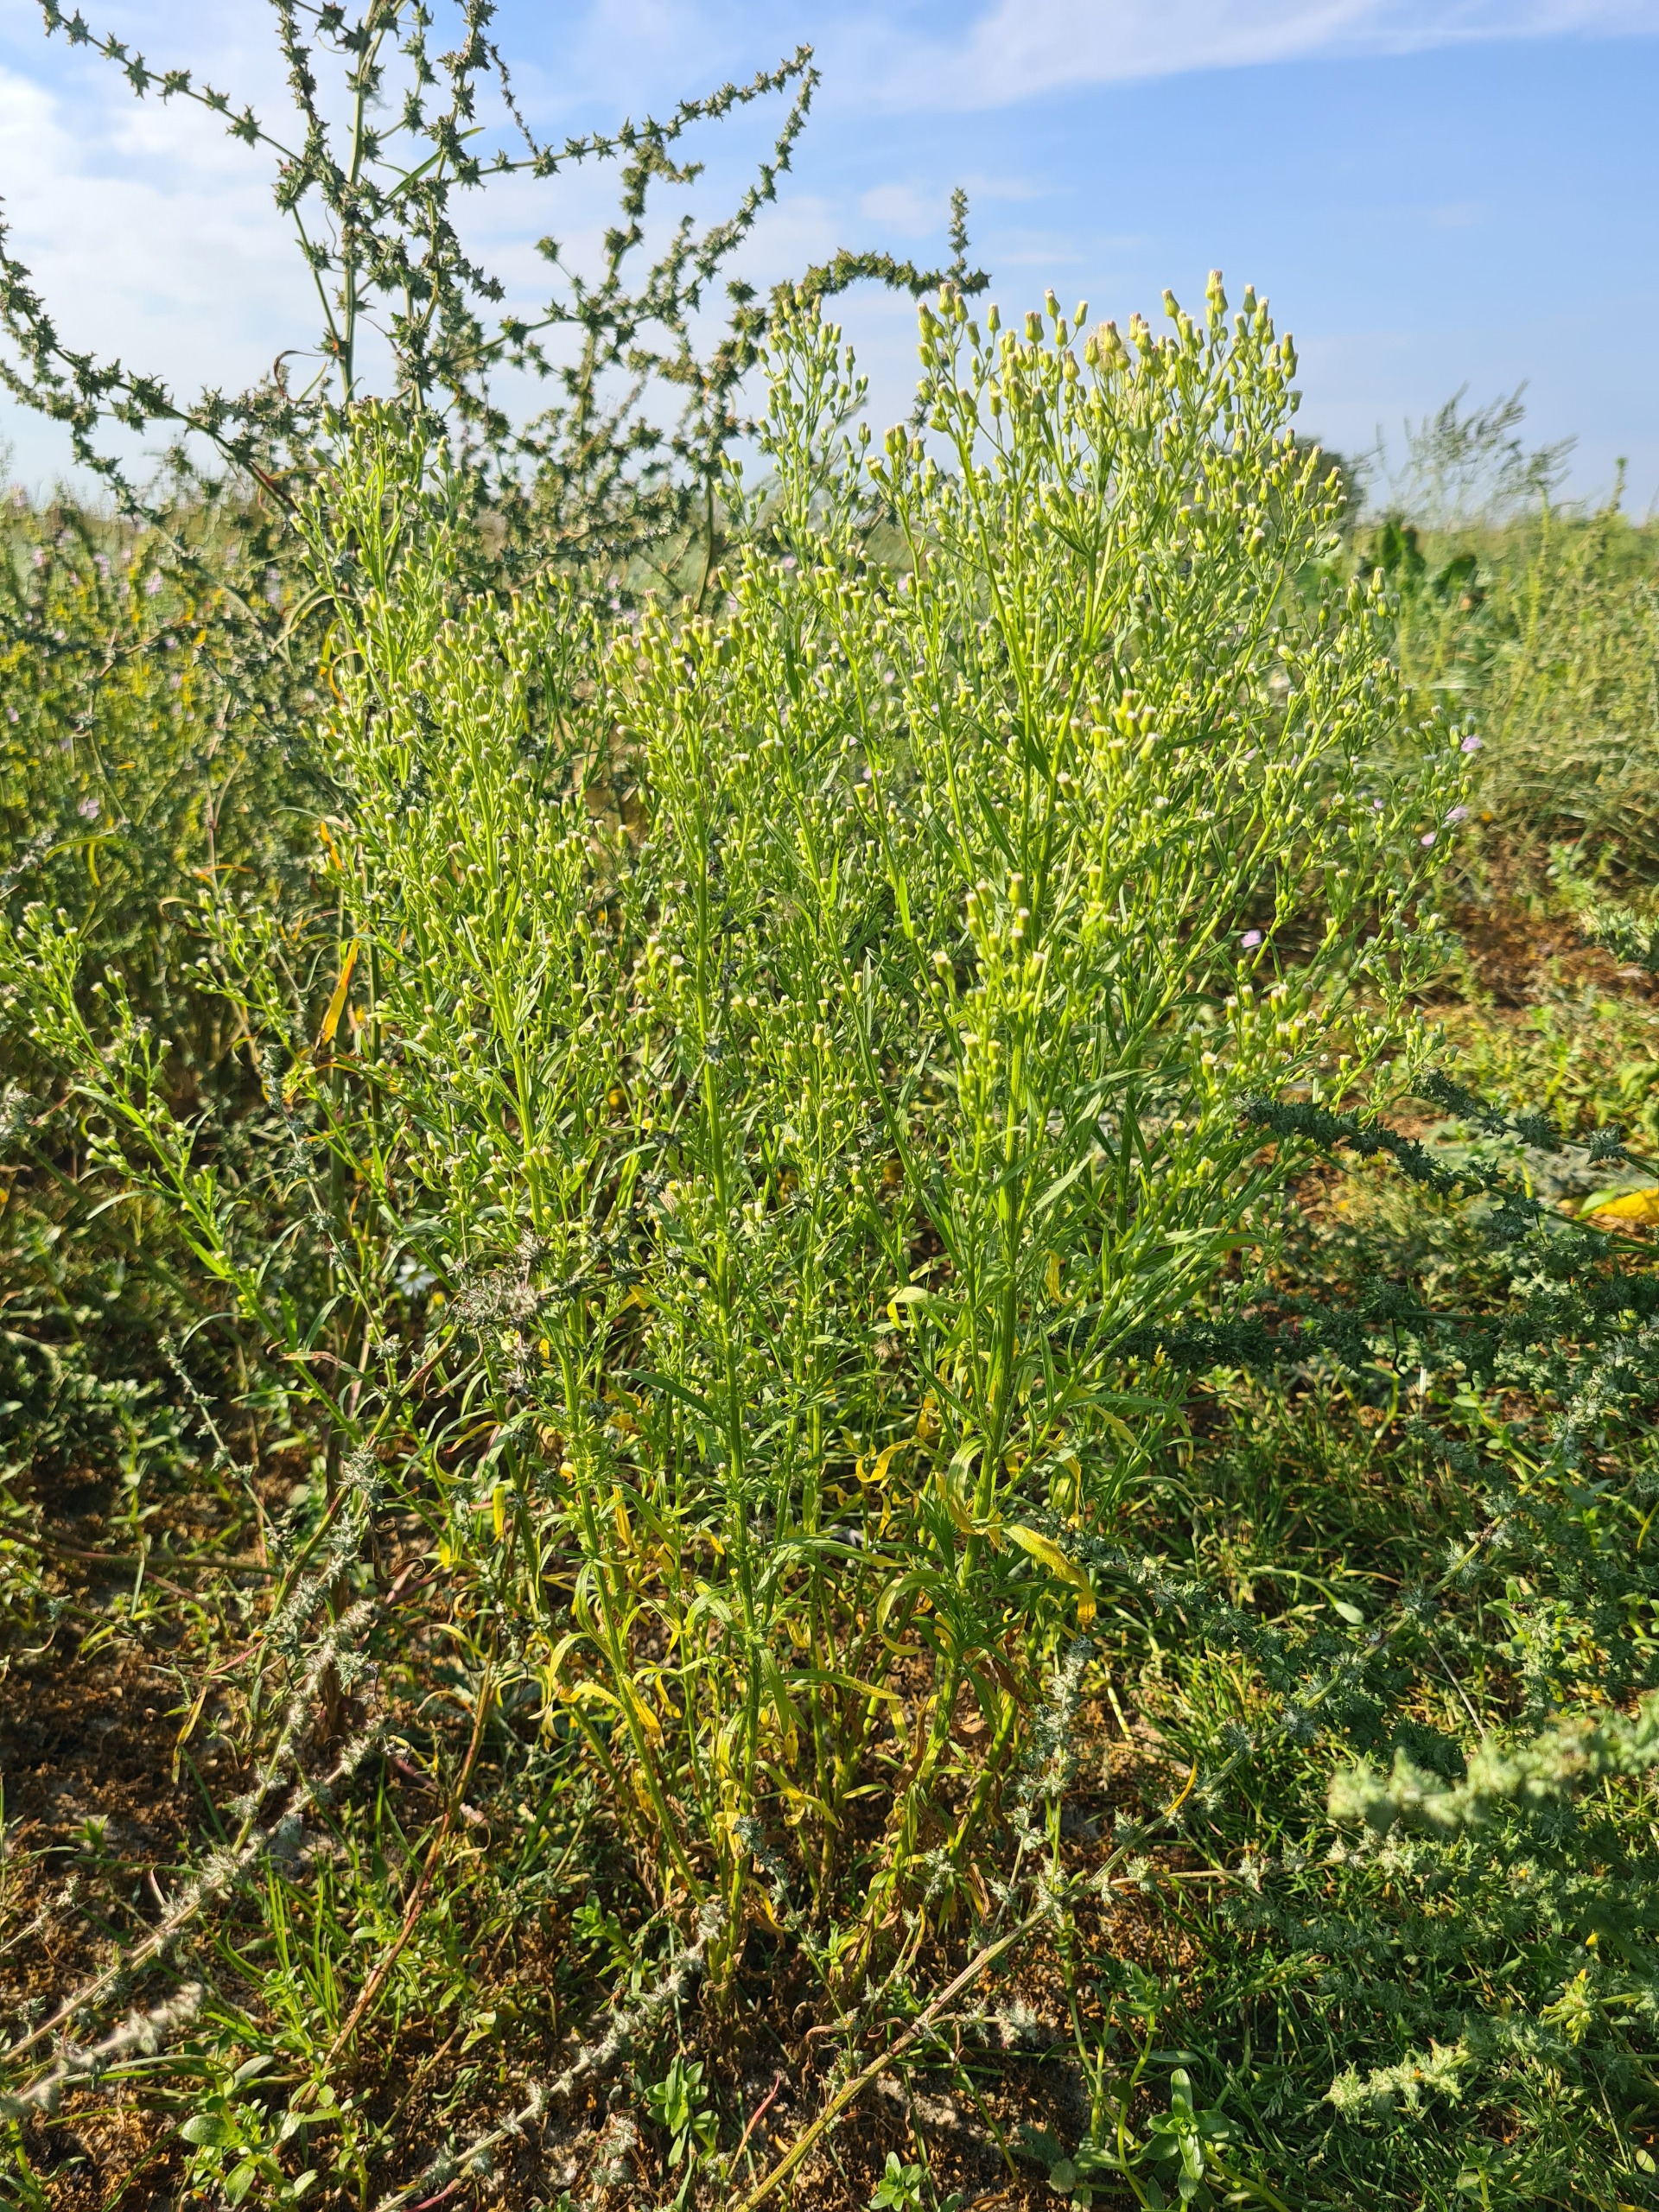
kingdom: Plantae
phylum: Tracheophyta
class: Magnoliopsida
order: Asterales
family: Asteraceae
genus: Erigeron
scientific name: Erigeron canadensis
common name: Kanadisk bakkestjerne
